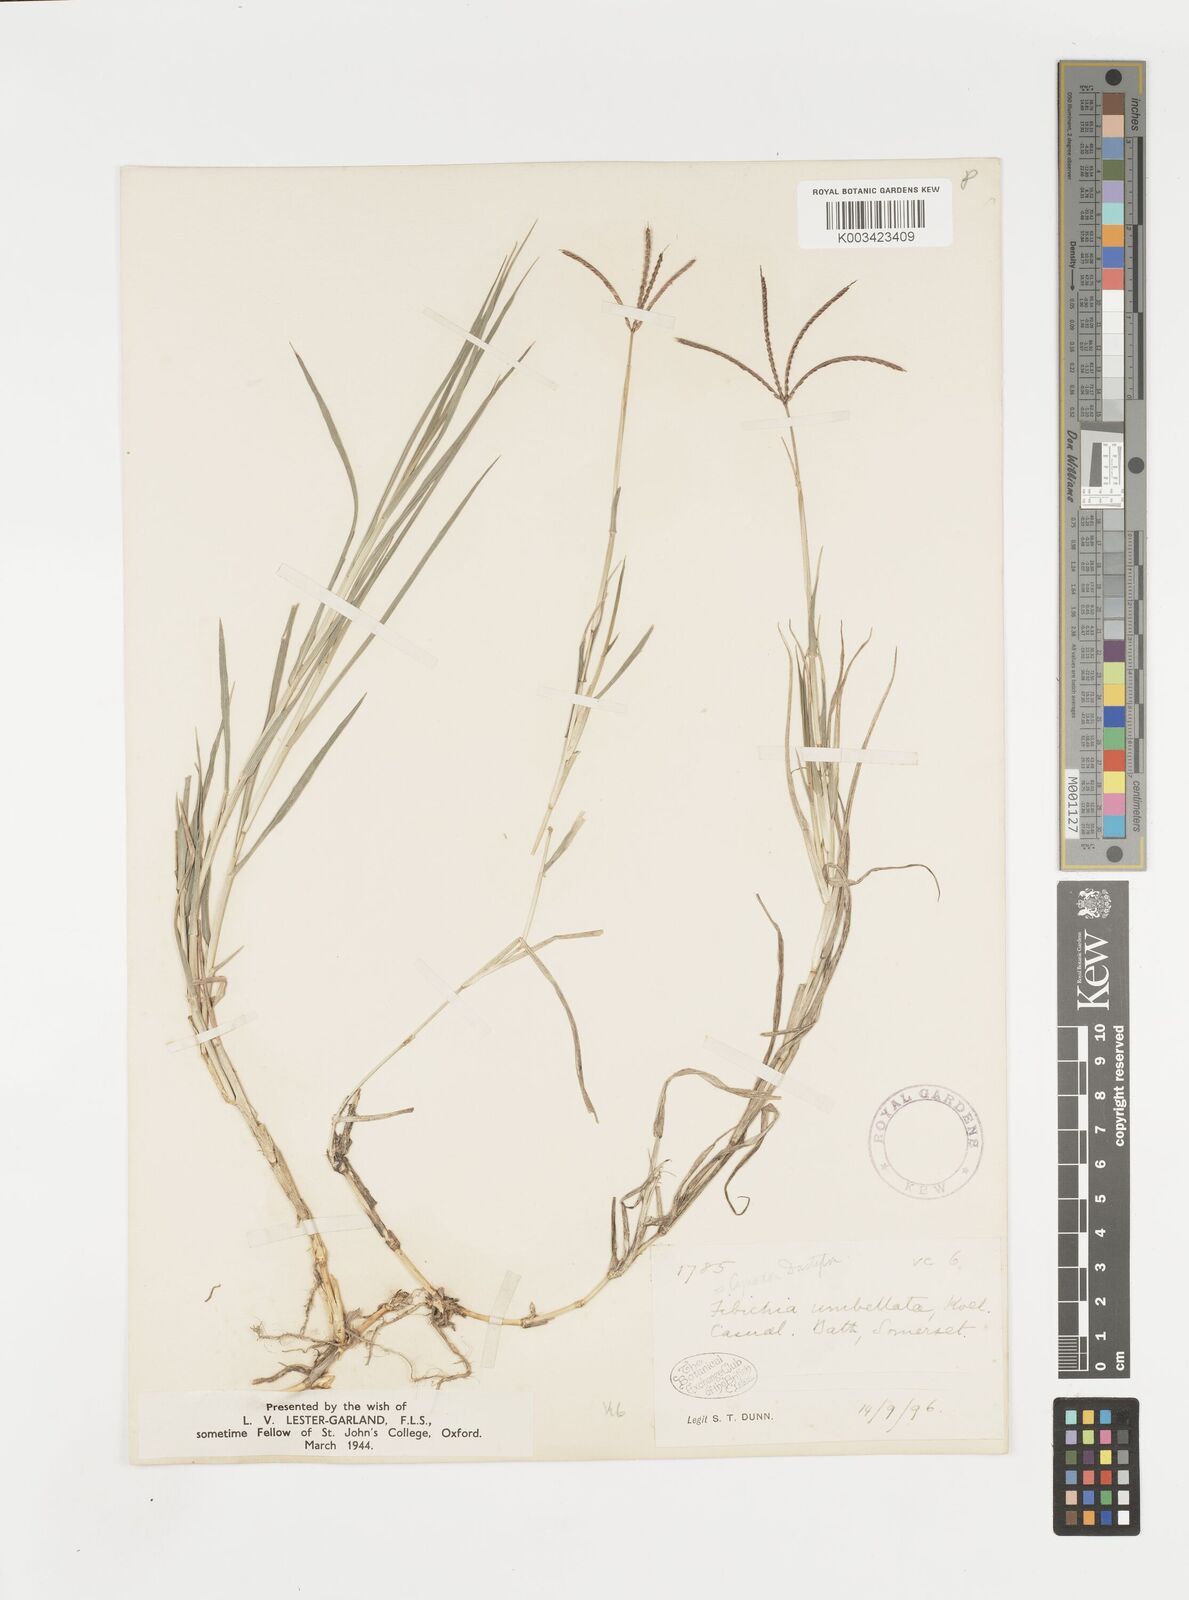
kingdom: Plantae
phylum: Tracheophyta
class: Liliopsida
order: Poales
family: Poaceae
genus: Cynodon
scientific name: Cynodon dactylon
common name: Bermuda grass
